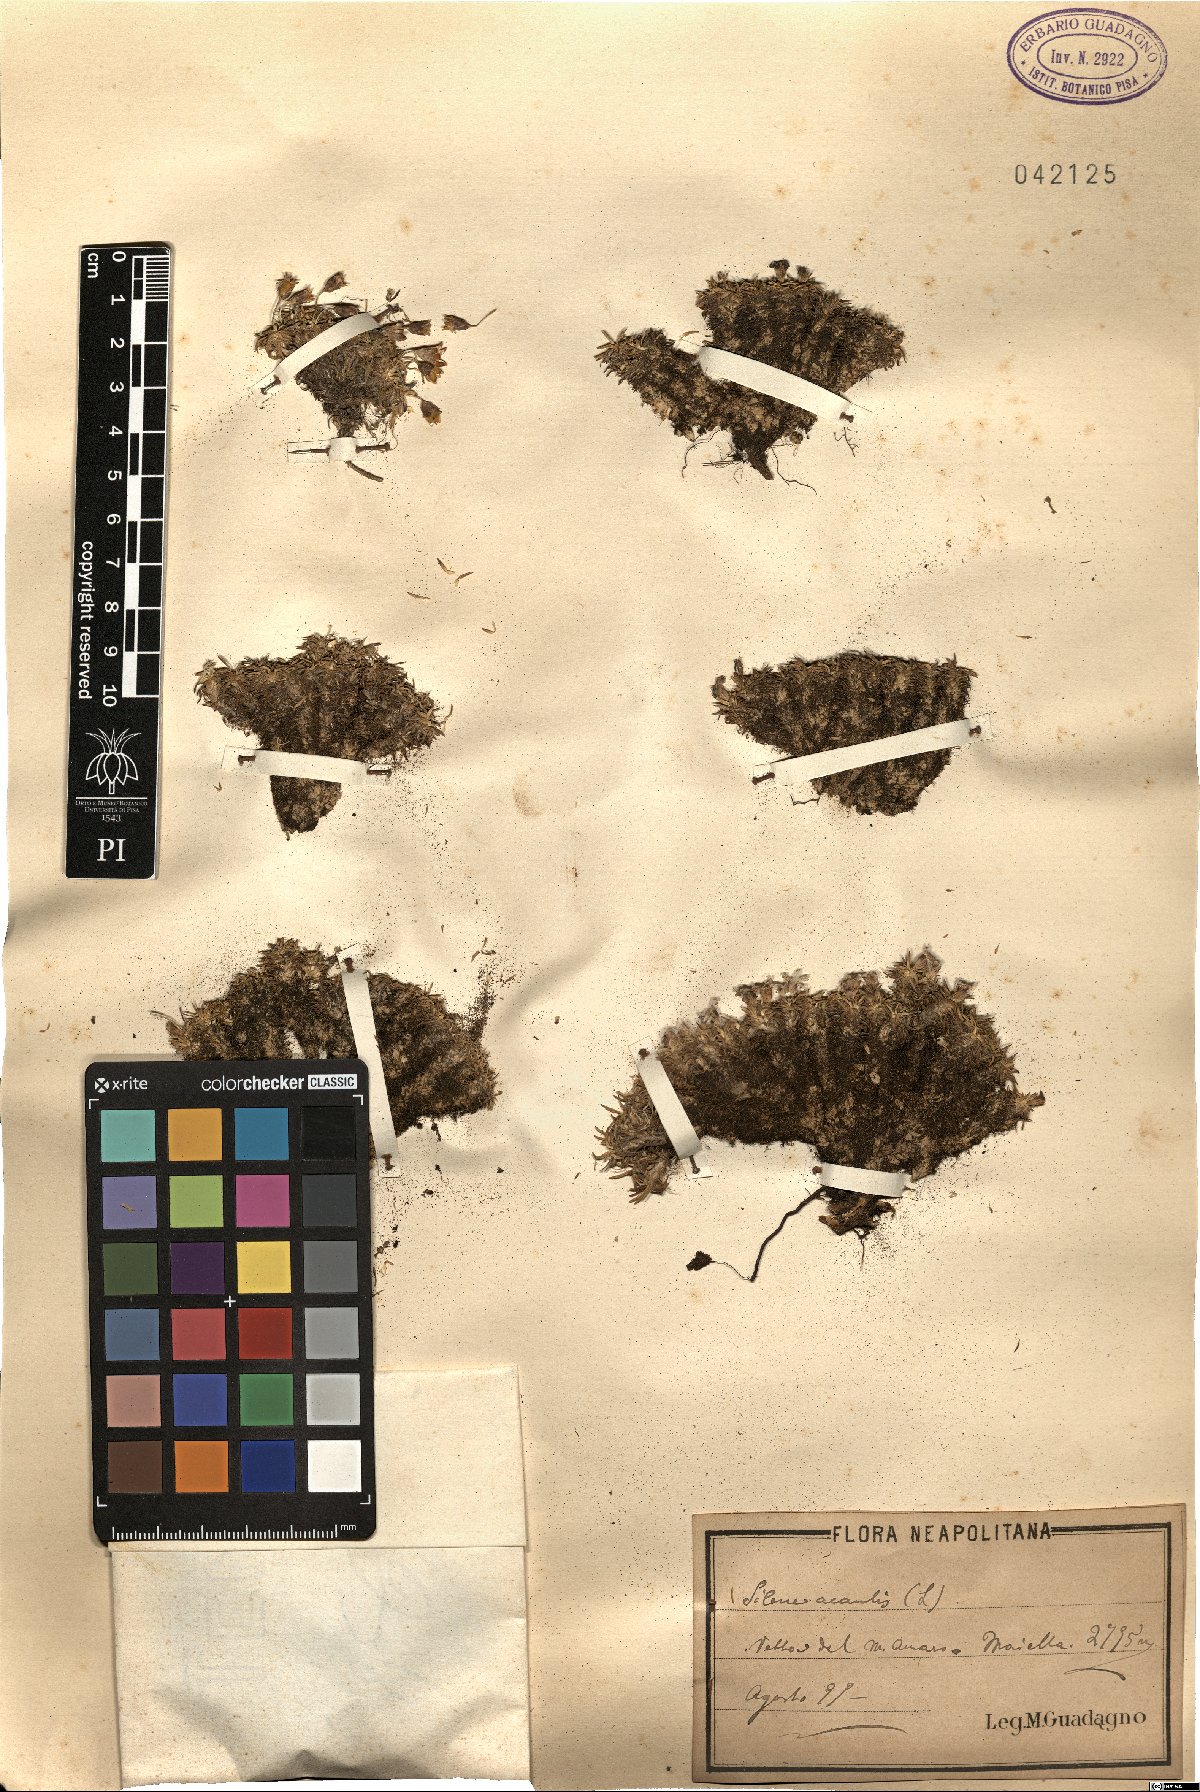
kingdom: Plantae
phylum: Tracheophyta
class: Magnoliopsida
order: Caryophyllales
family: Caryophyllaceae
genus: Silene
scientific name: Silene acaulis
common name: Moss campion
